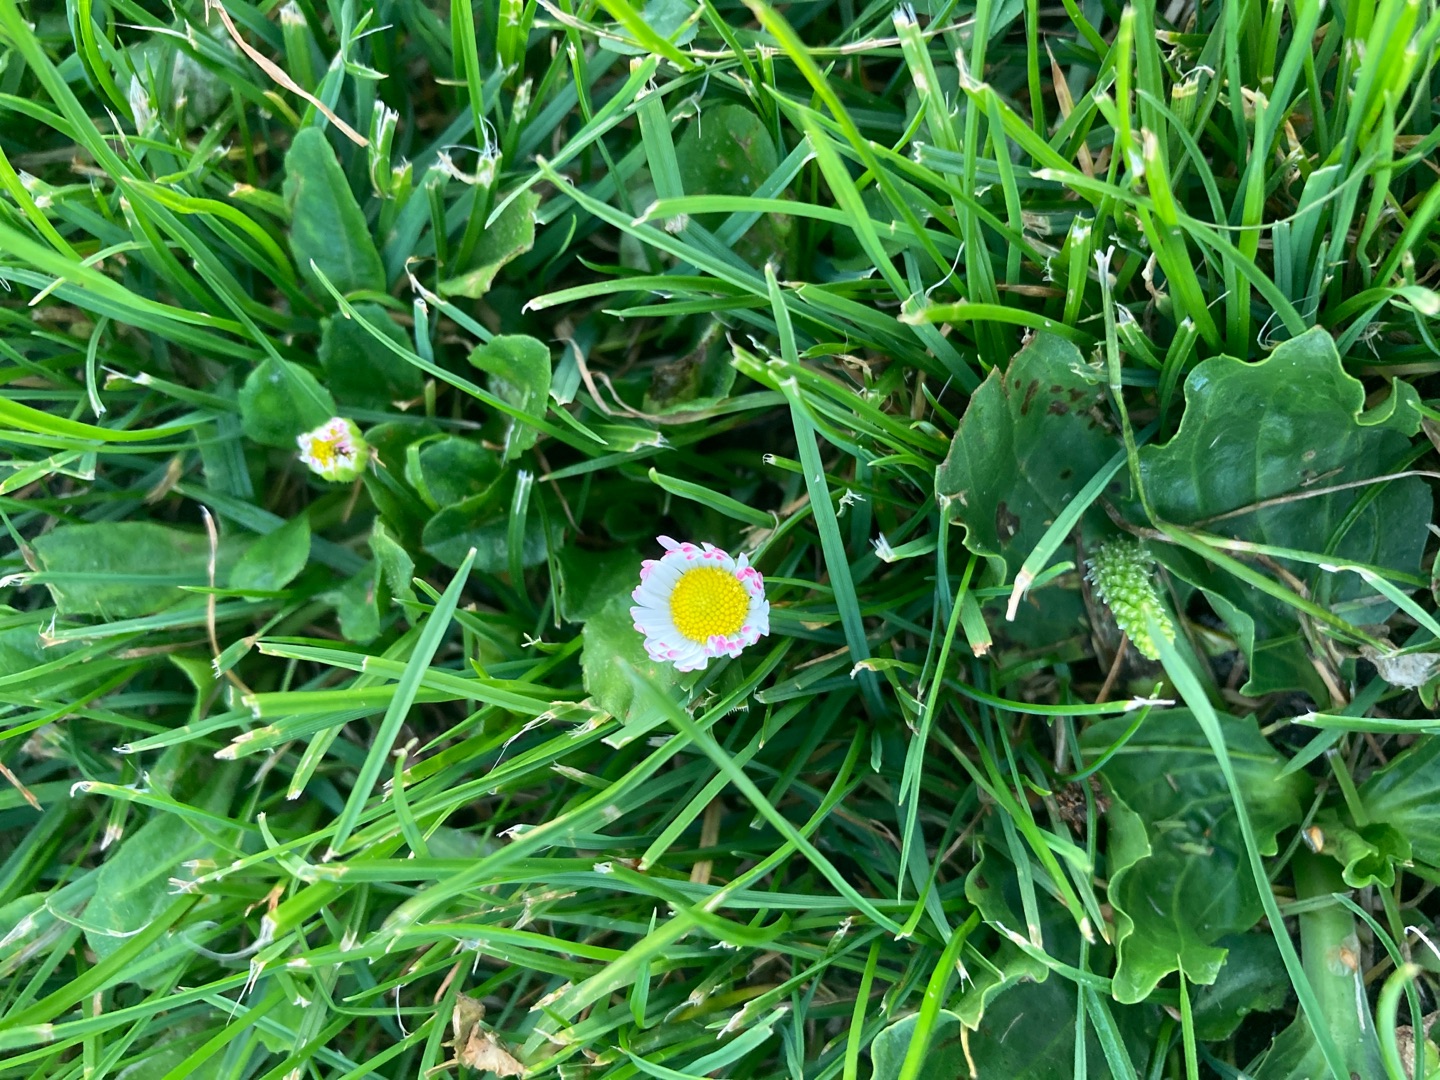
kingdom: Plantae
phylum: Tracheophyta
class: Magnoliopsida
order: Asterales
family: Asteraceae
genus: Bellis
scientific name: Bellis perennis
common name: Tusindfryd
